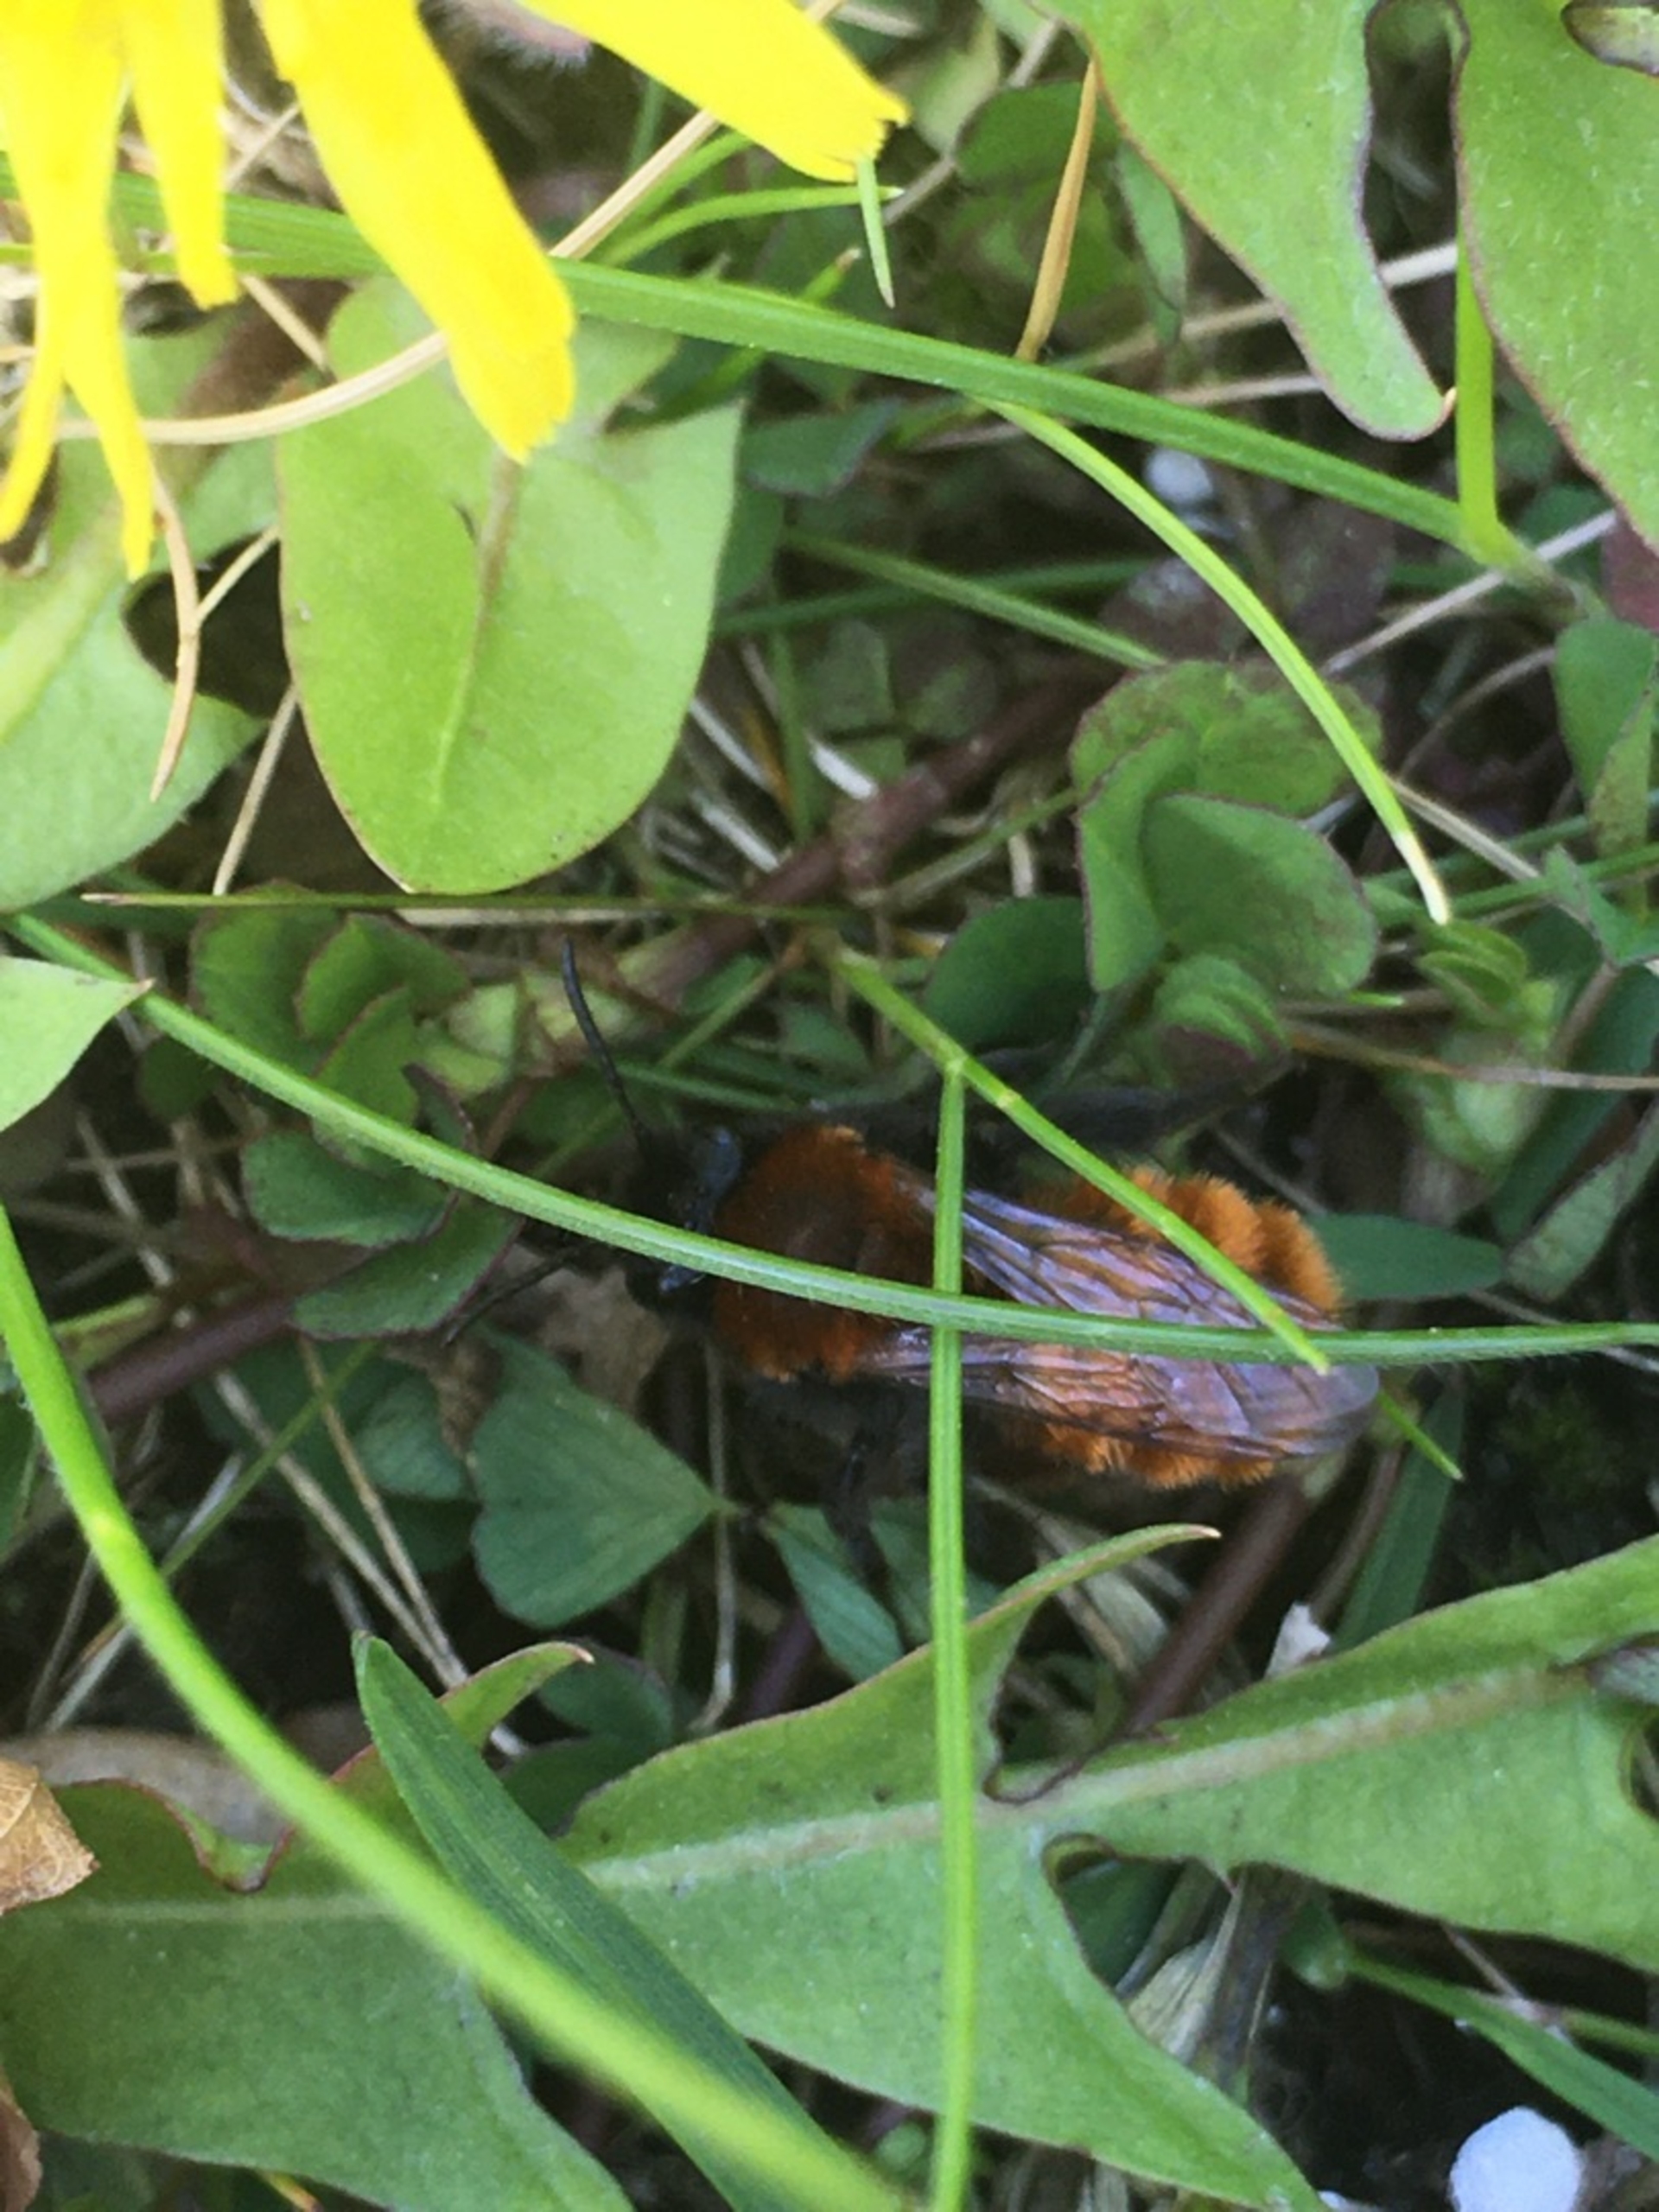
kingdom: Animalia
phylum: Arthropoda
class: Insecta
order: Hymenoptera
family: Andrenidae
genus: Andrena
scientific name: Andrena fulva
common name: Rødpelset jordbi
